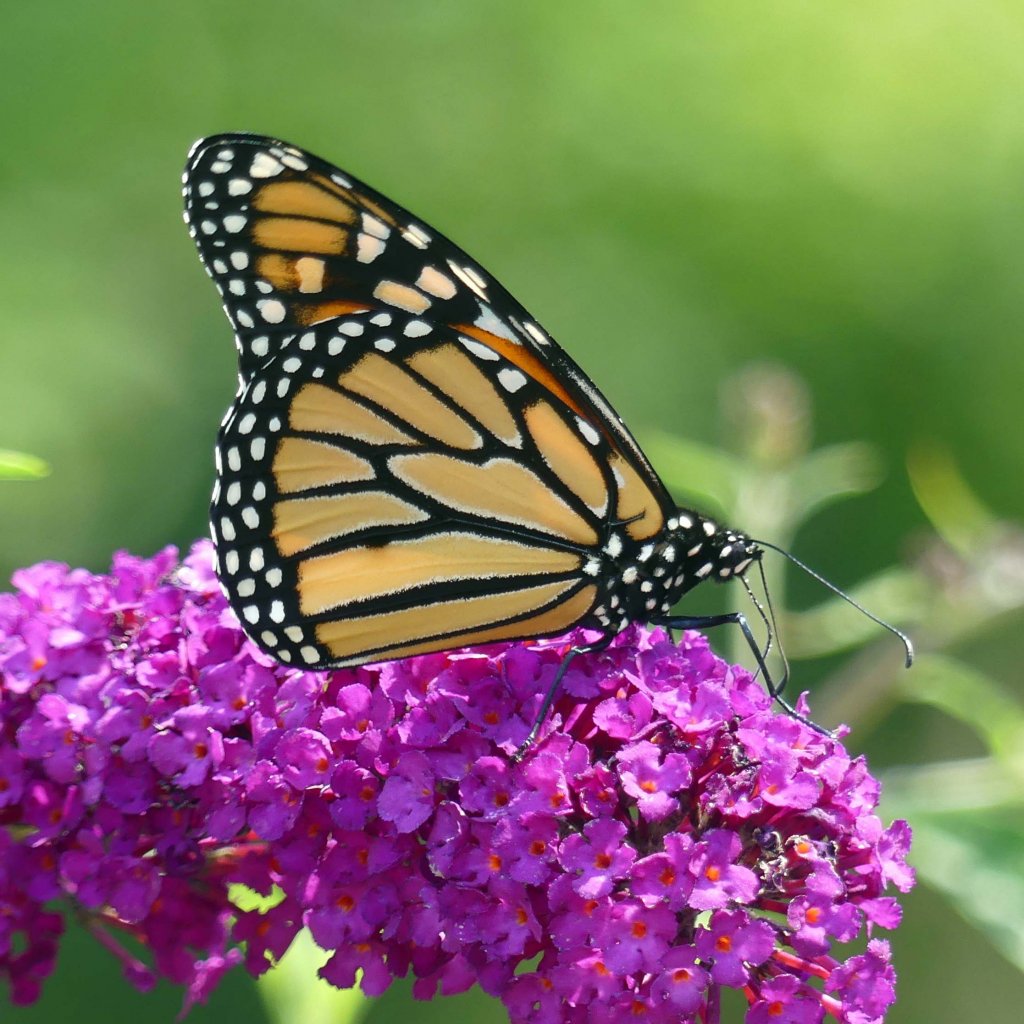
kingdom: Animalia
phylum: Arthropoda
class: Insecta
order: Lepidoptera
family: Nymphalidae
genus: Danaus
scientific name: Danaus plexippus
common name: Monarch
